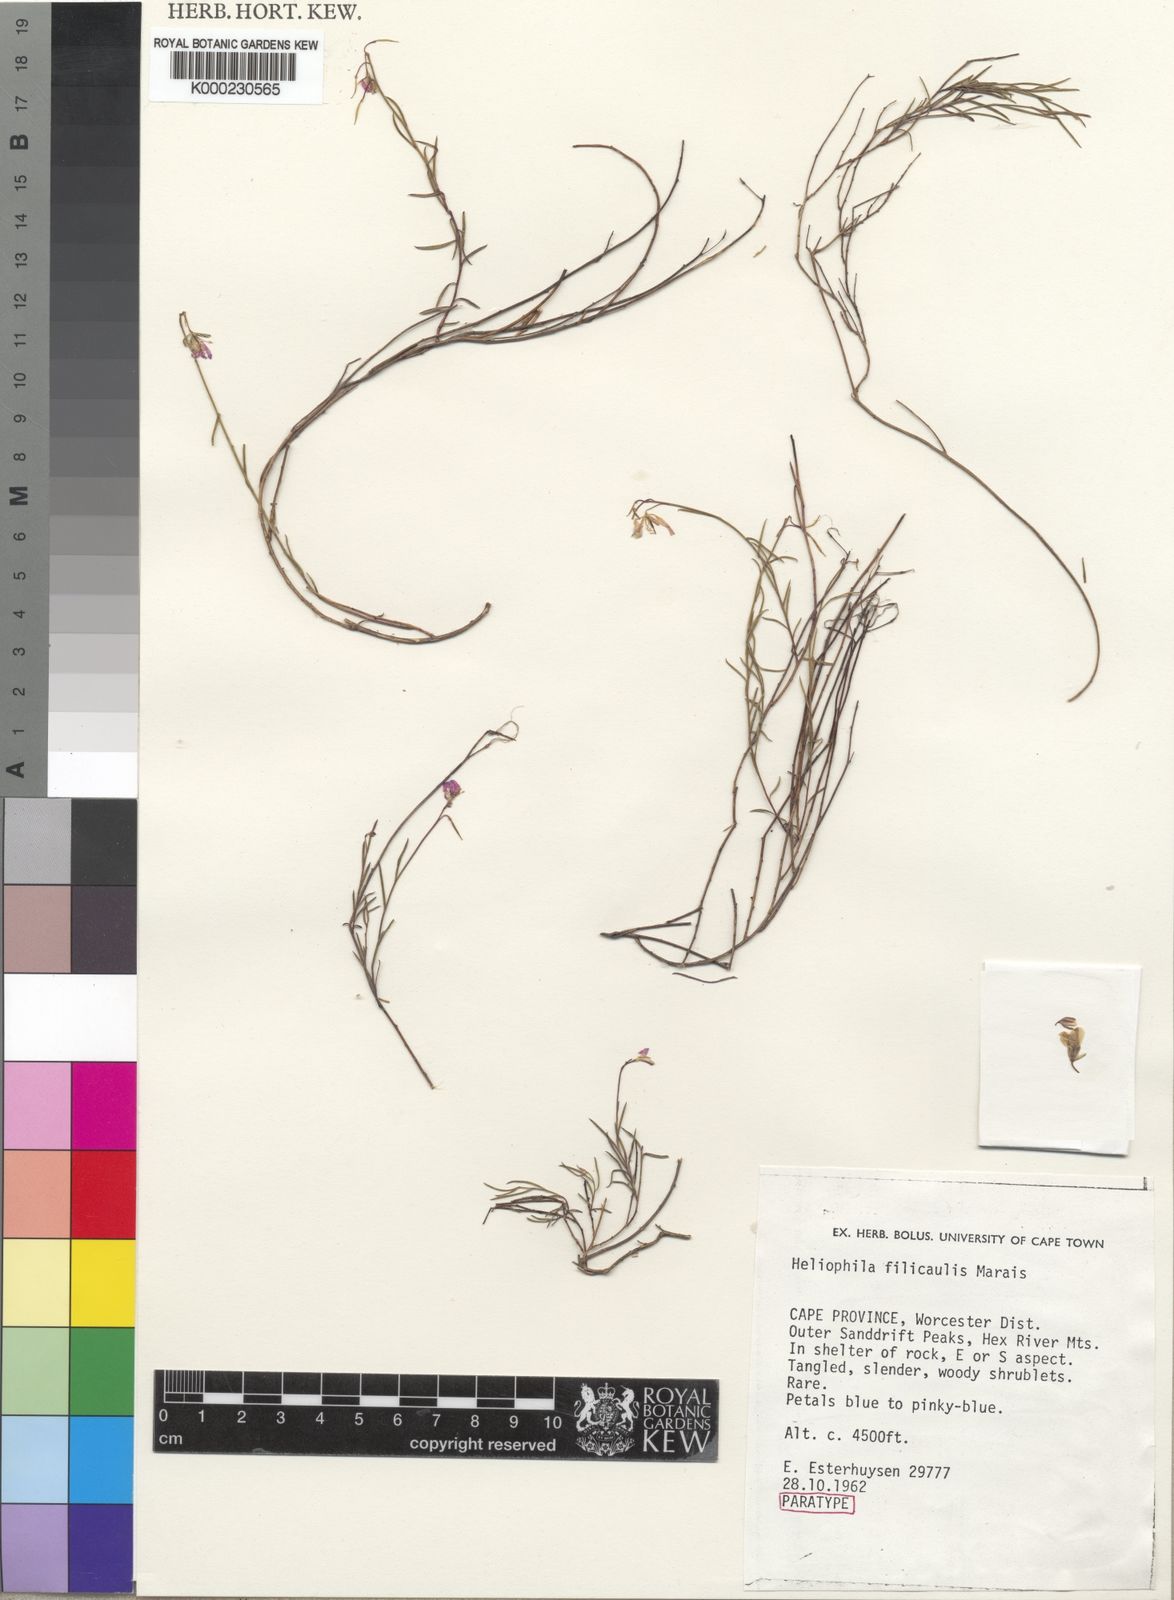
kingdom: Plantae
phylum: Tracheophyta
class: Magnoliopsida
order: Brassicales
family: Brassicaceae
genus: Heliophila
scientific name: Heliophila filicaulis
